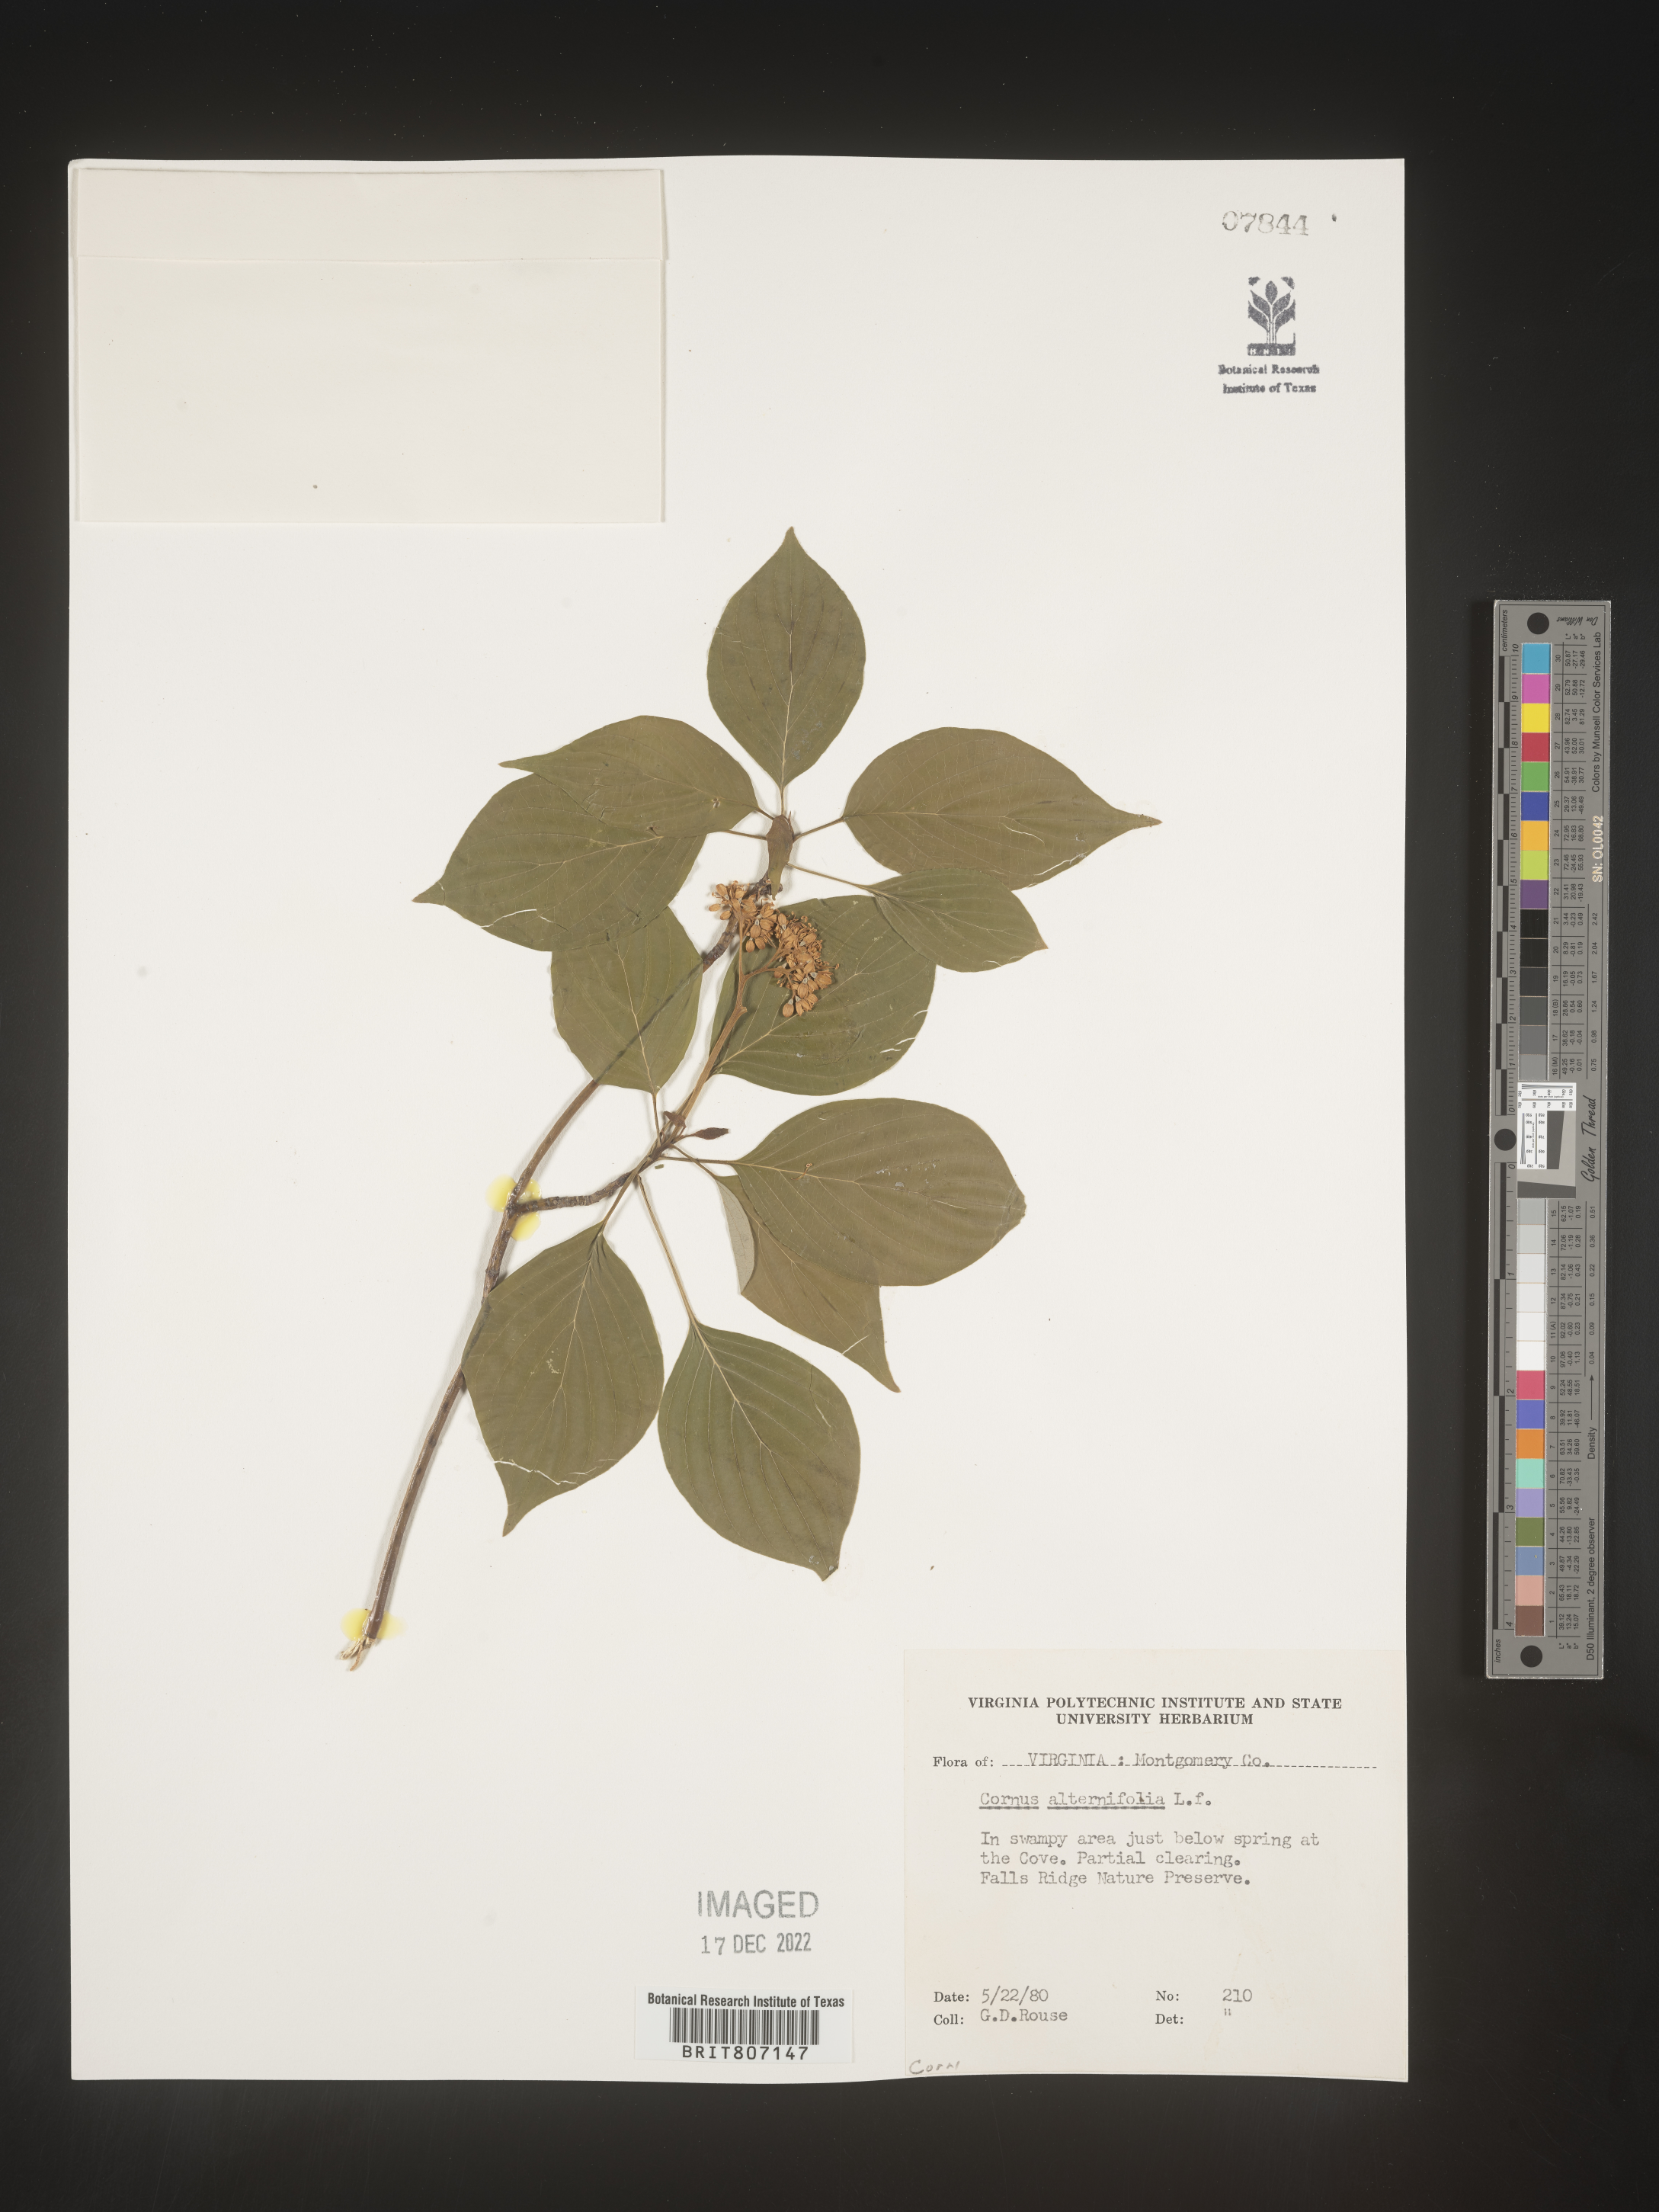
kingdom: Plantae
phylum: Tracheophyta
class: Magnoliopsida
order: Cornales
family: Cornaceae
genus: Cornus
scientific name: Cornus alternifolia
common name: Pagoda dogwood
